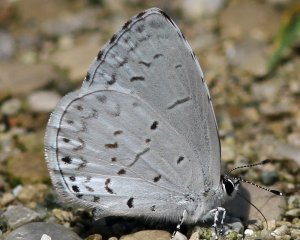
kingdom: Animalia
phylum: Arthropoda
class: Insecta
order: Lepidoptera
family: Lycaenidae
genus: Cyaniris
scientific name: Cyaniris neglecta
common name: Summer Azure
